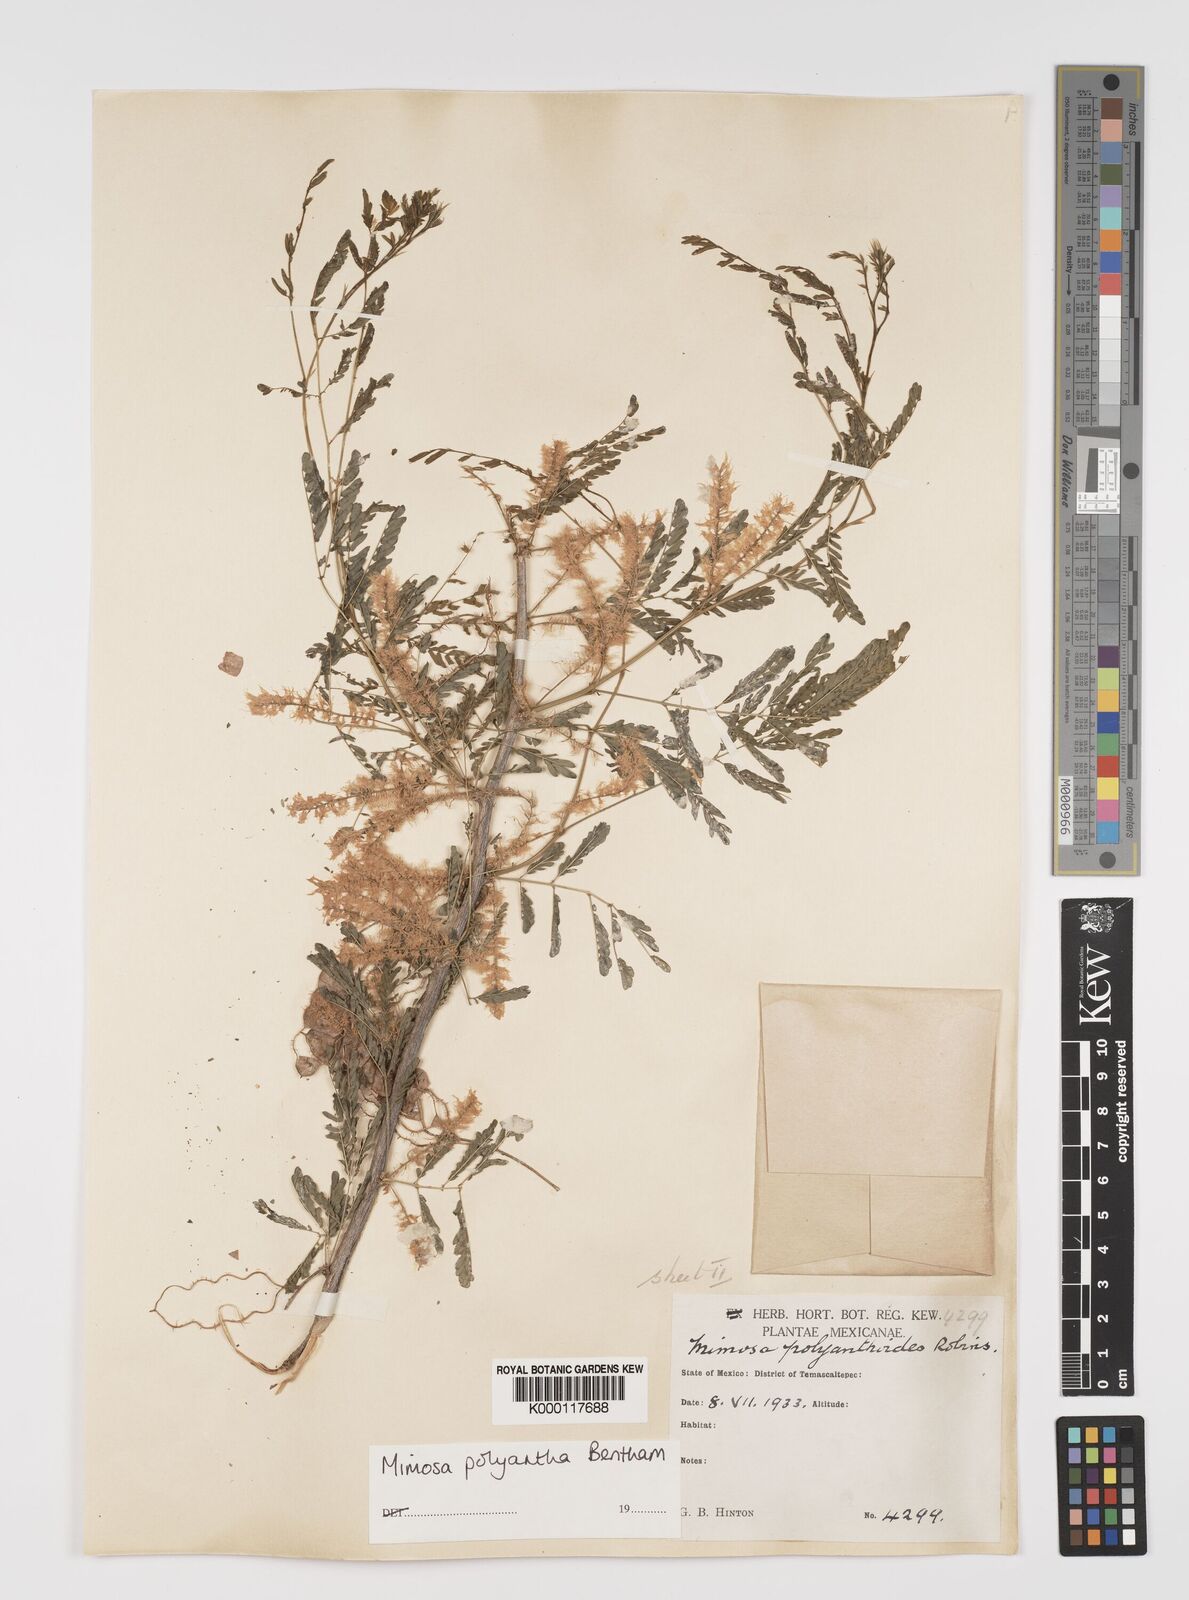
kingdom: Plantae
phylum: Tracheophyta
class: Magnoliopsida
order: Fabales
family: Fabaceae
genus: Mimosa
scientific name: Mimosa polyantha
